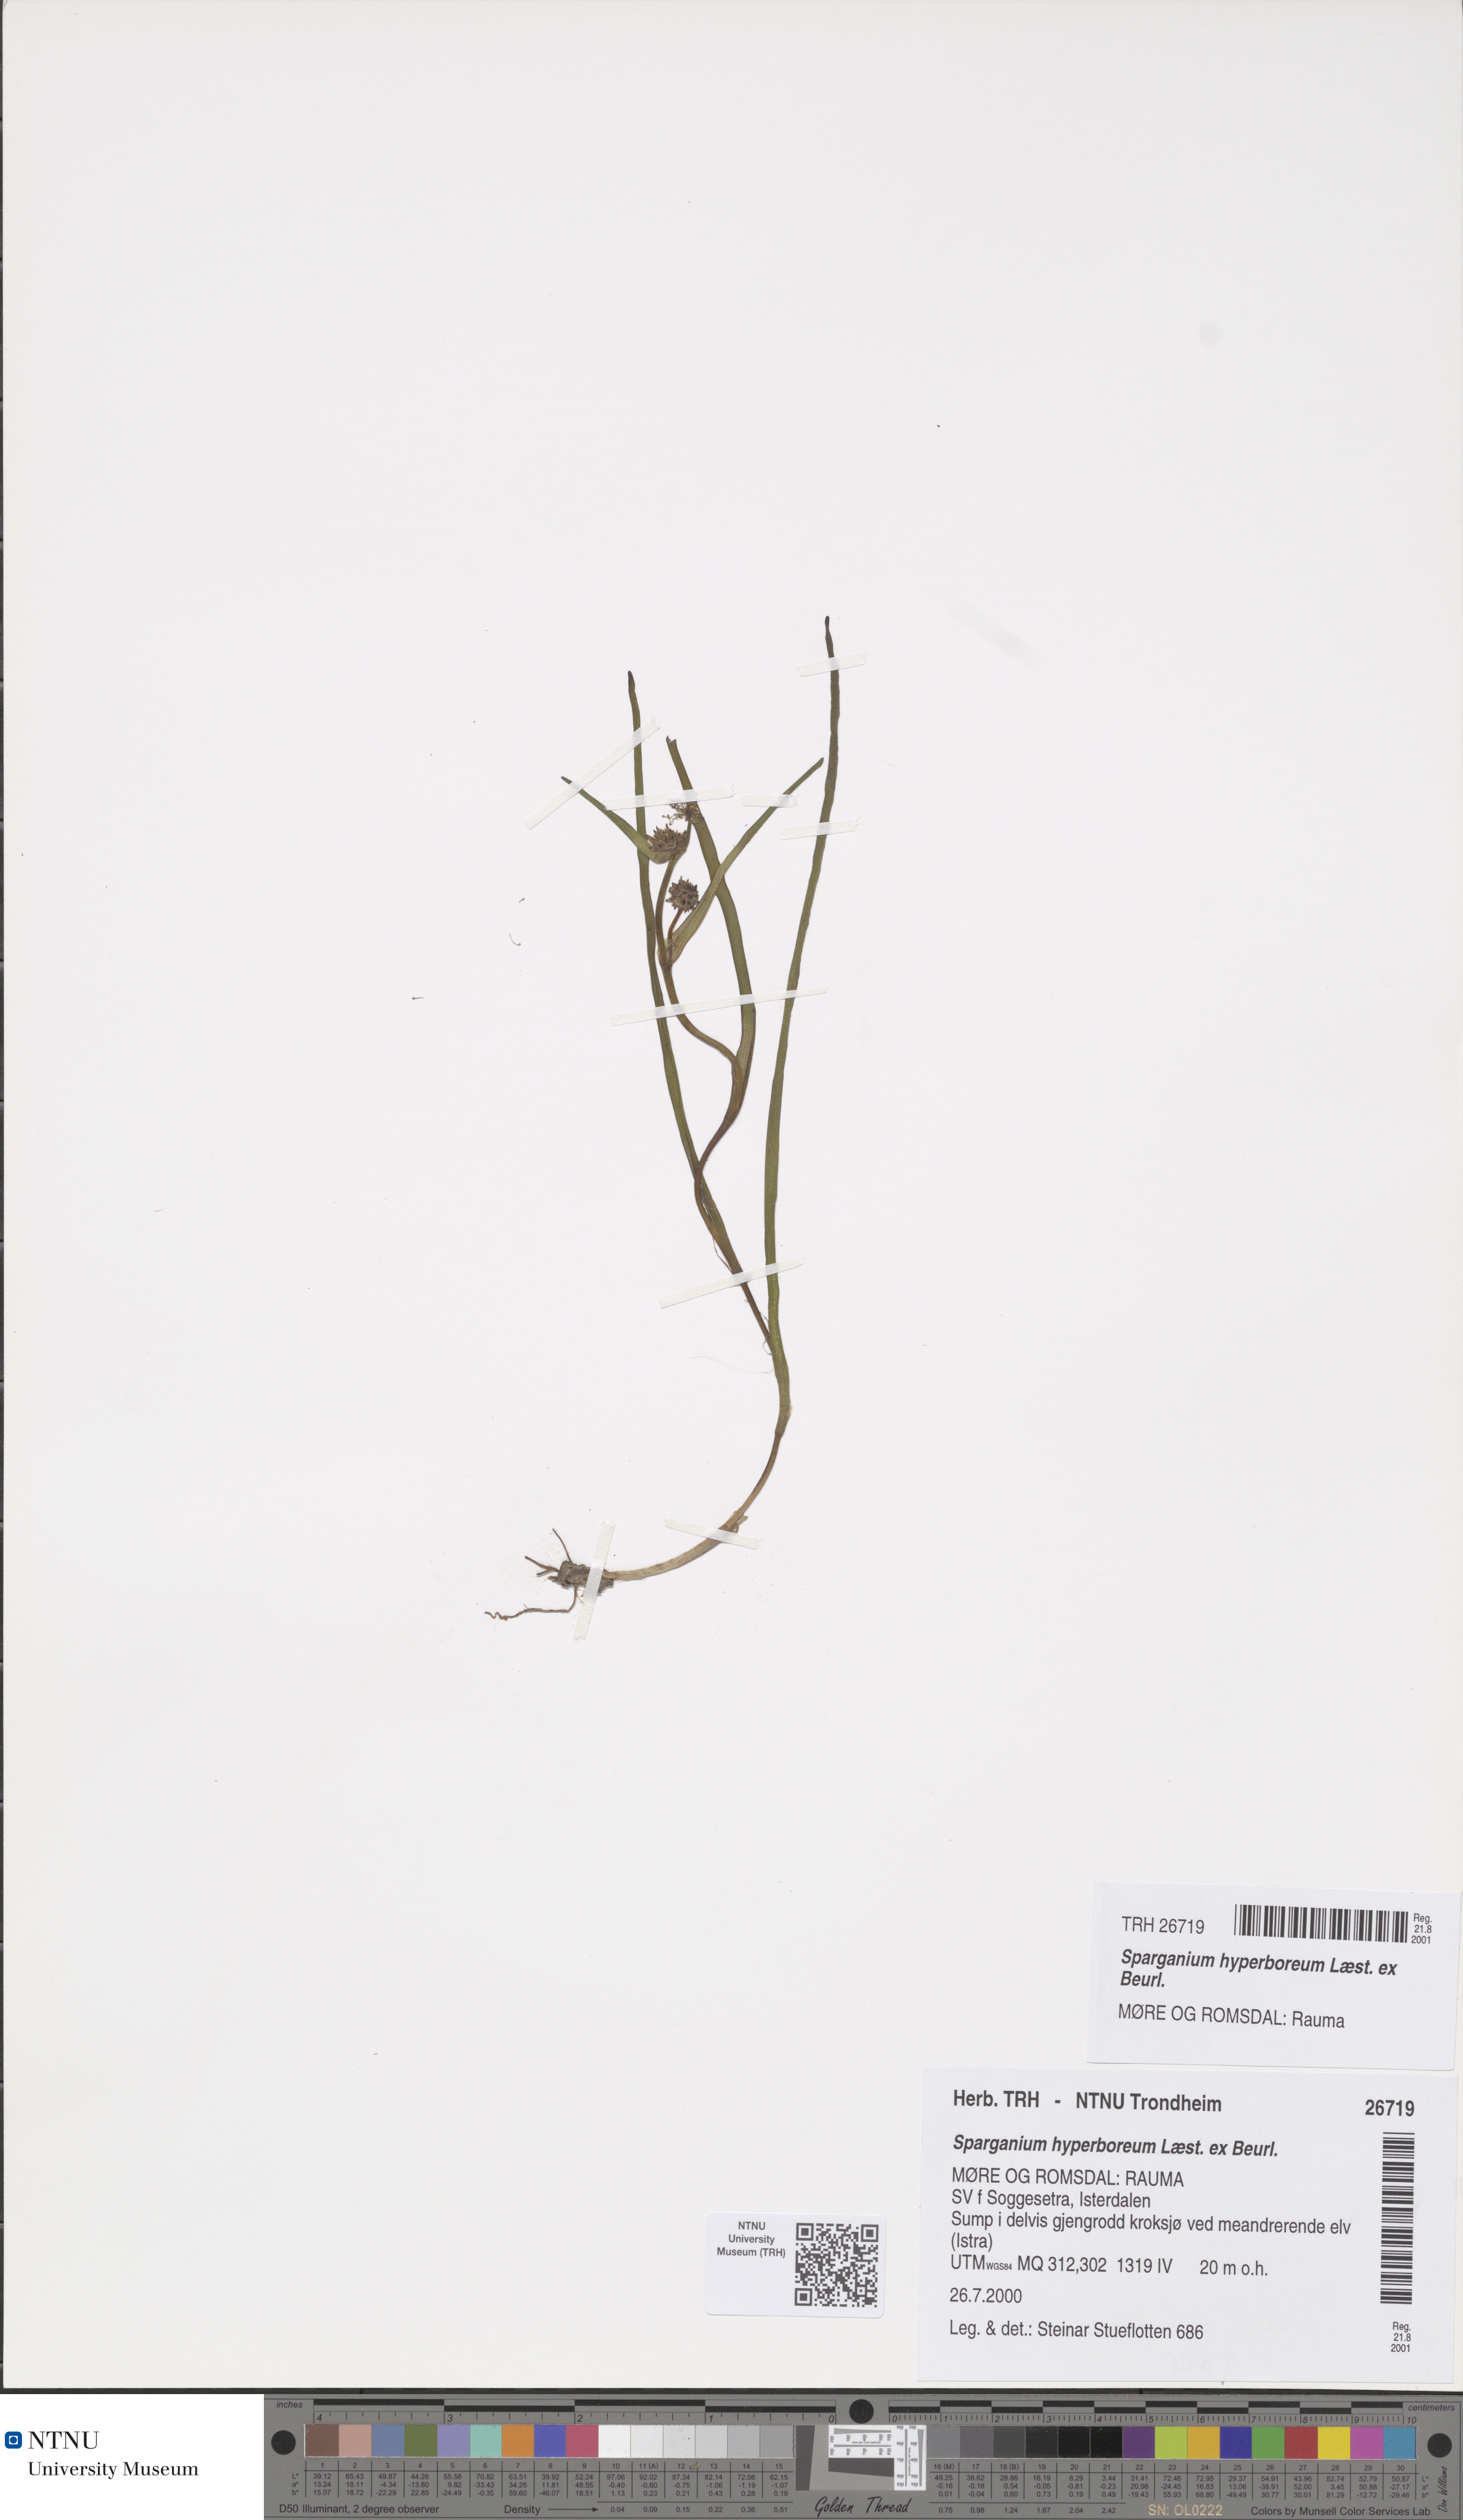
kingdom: Plantae
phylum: Tracheophyta
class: Liliopsida
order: Poales
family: Typhaceae
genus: Sparganium
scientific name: Sparganium hyperboreum
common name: Arctic burreed
